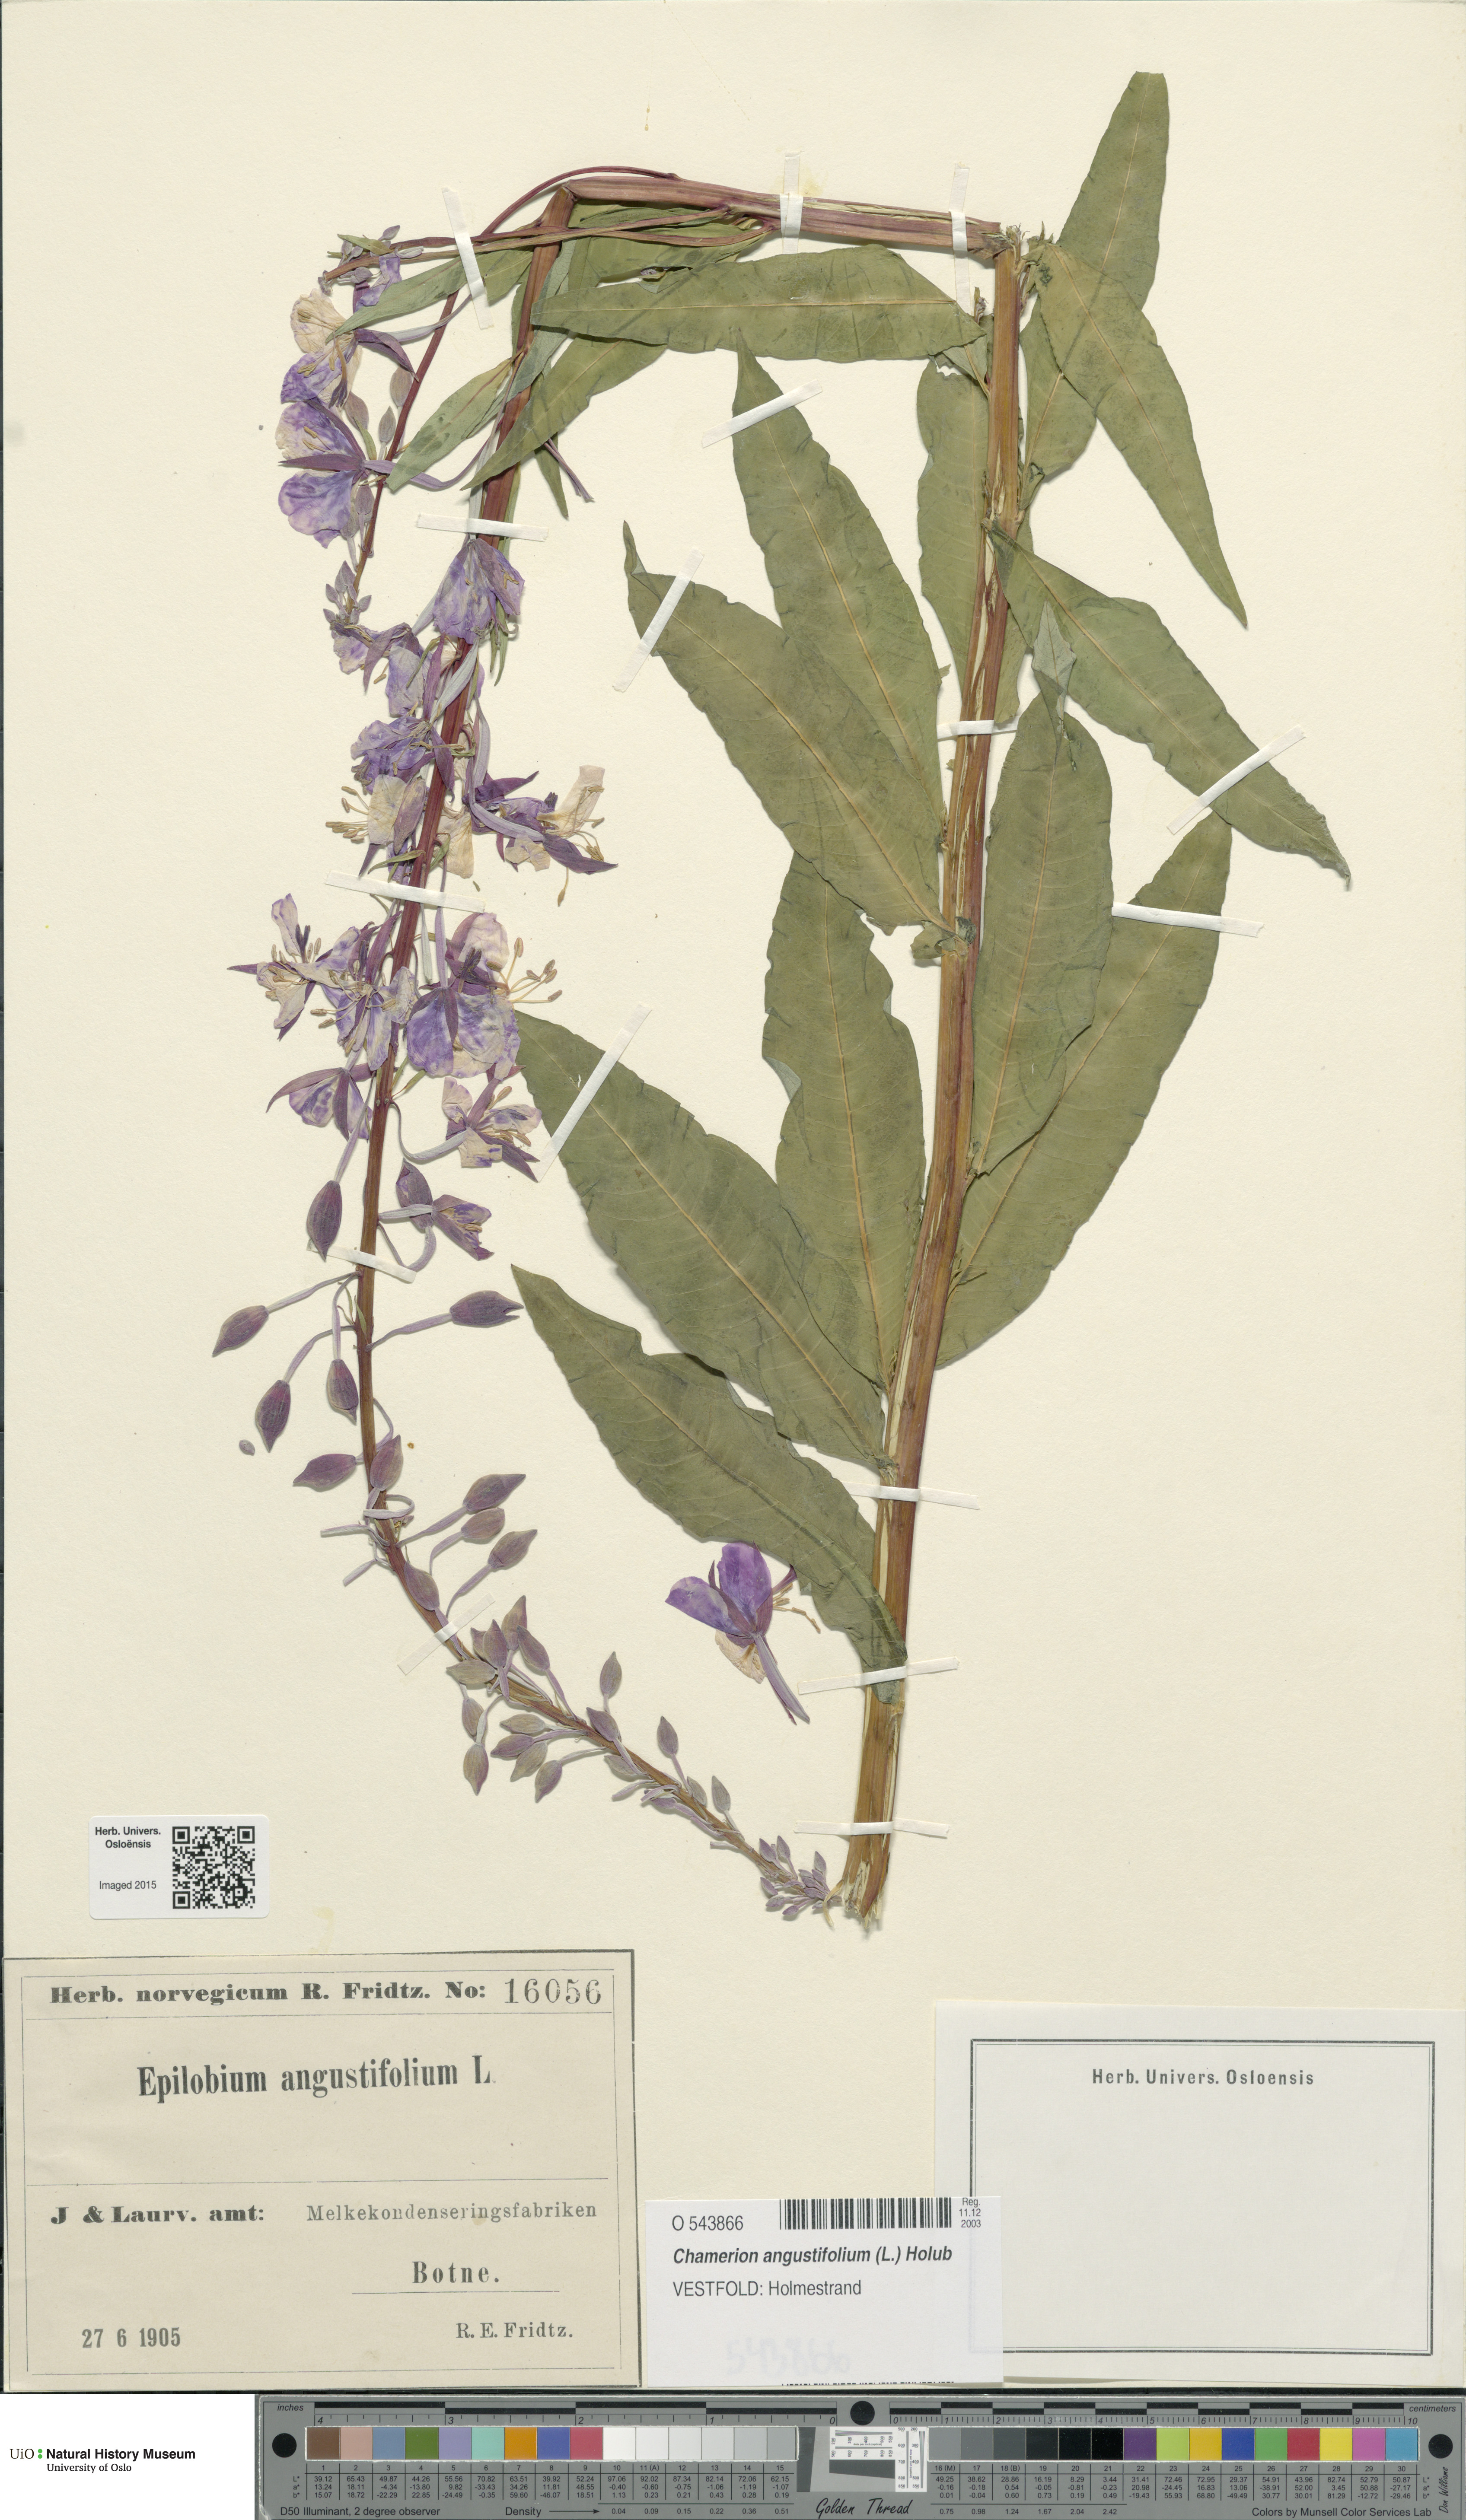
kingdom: Plantae
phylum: Tracheophyta
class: Magnoliopsida
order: Myrtales
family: Onagraceae
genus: Chamaenerion
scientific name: Chamaenerion angustifolium
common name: Fireweed
